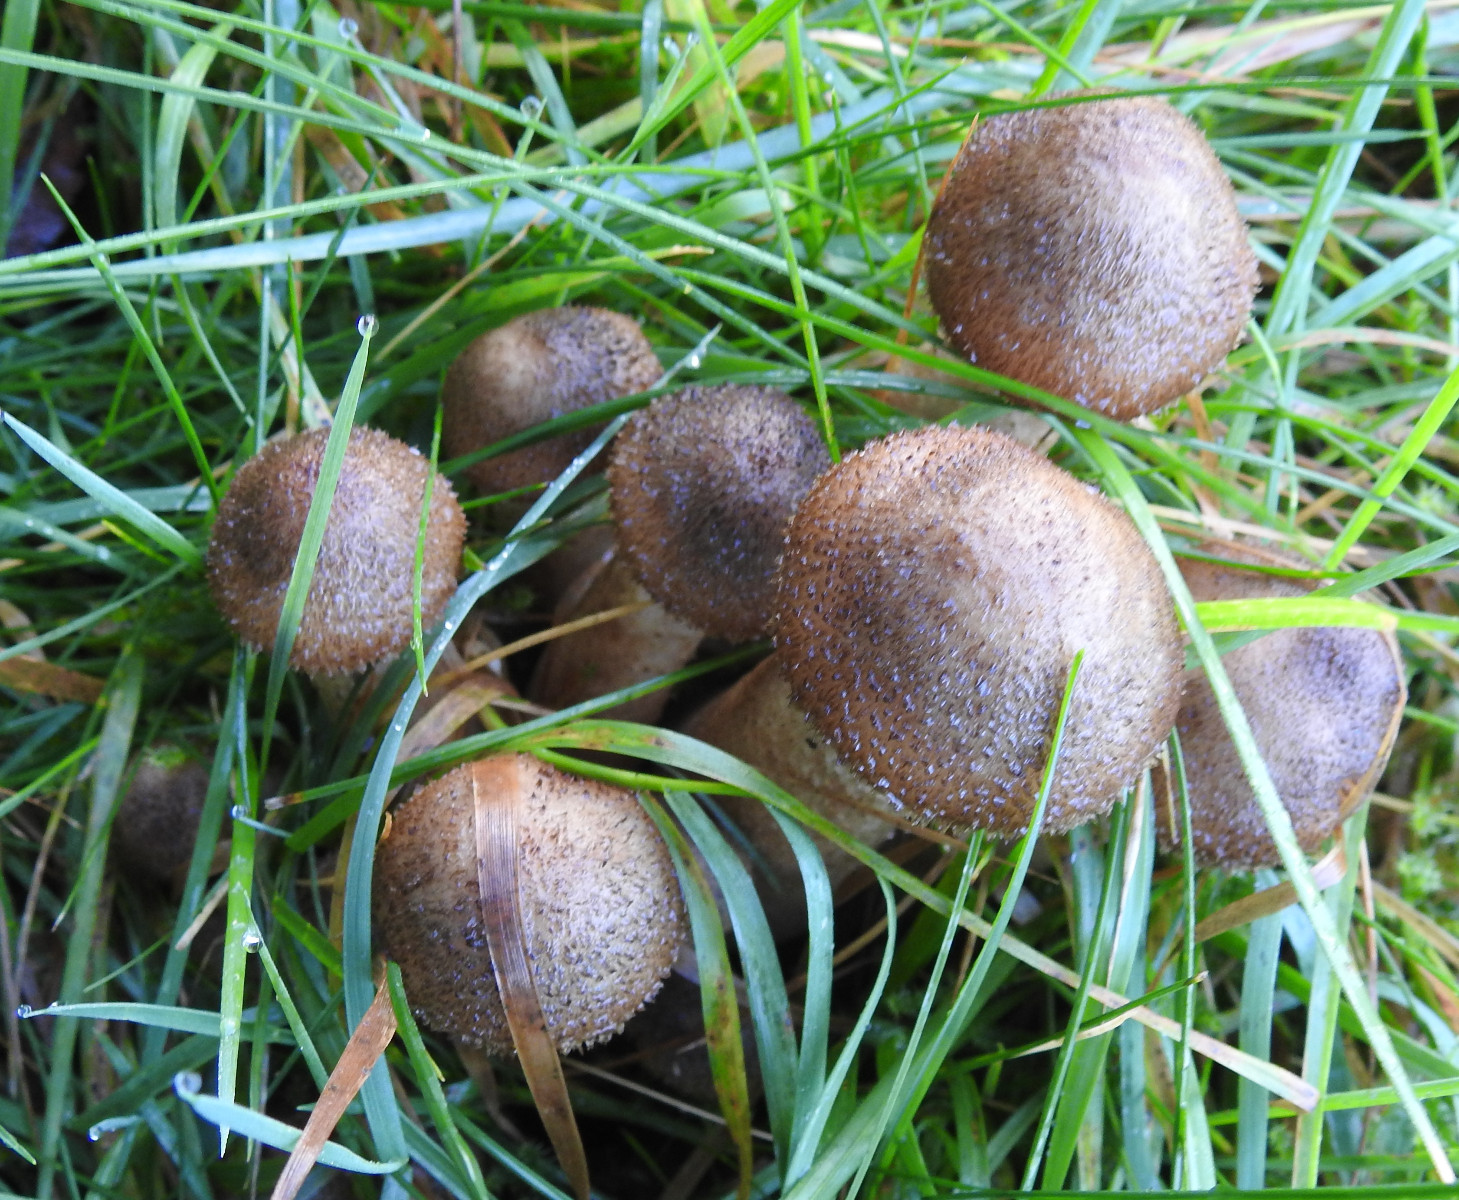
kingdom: Fungi
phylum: Basidiomycota
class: Agaricomycetes
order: Agaricales
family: Physalacriaceae
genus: Armillaria
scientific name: Armillaria
